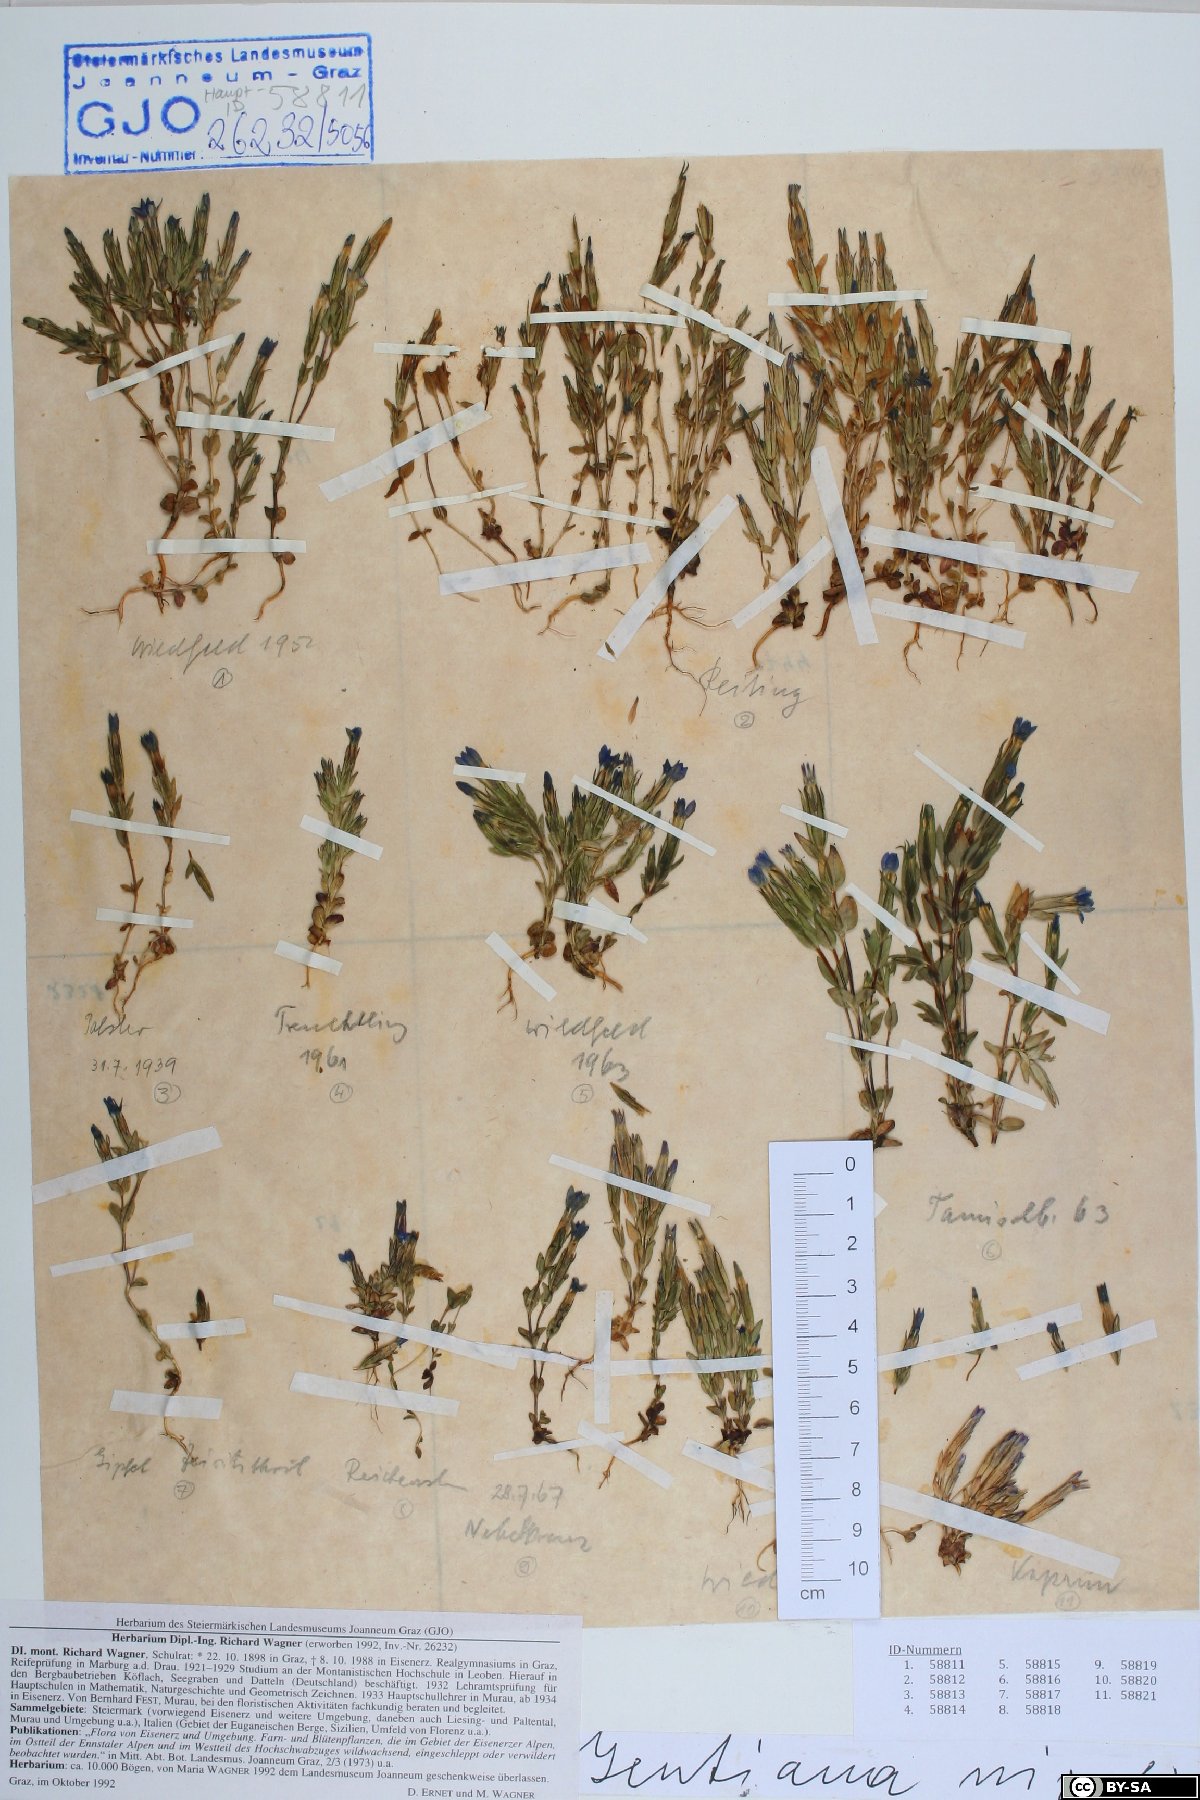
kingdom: Plantae
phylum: Tracheophyta
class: Magnoliopsida
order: Gentianales
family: Gentianaceae
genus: Gentiana
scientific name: Gentiana nivalis
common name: Alpine gentian
